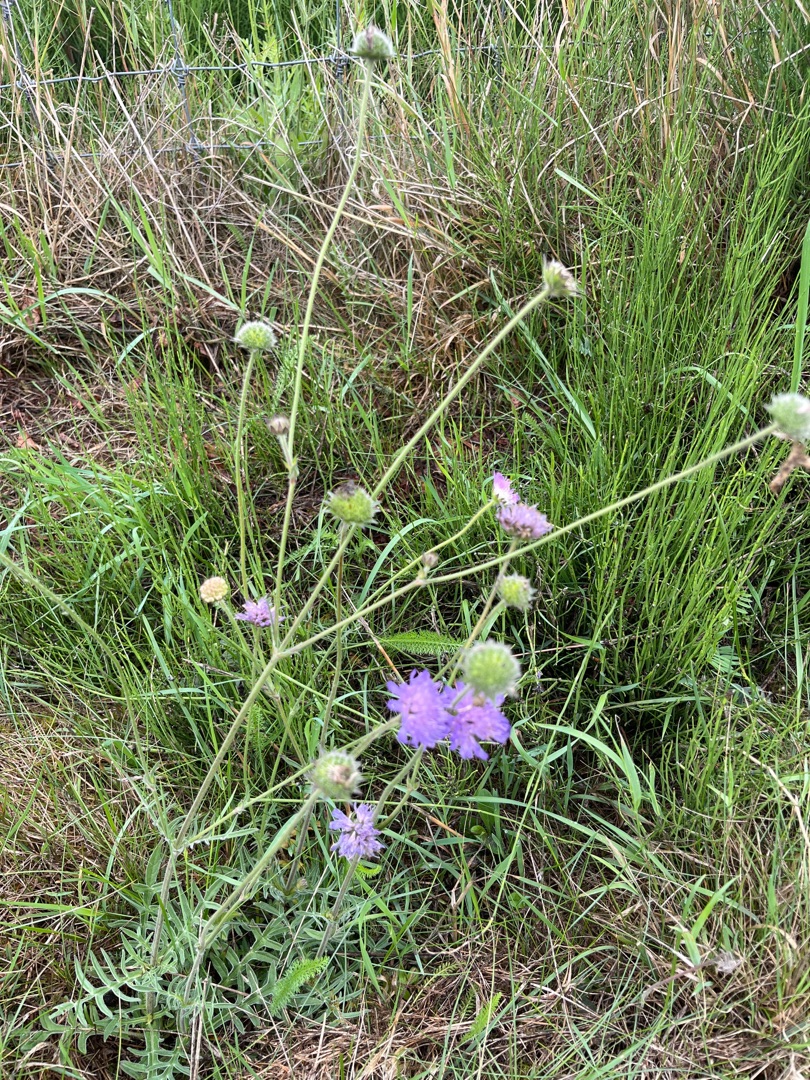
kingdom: Plantae
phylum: Tracheophyta
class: Magnoliopsida
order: Dipsacales
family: Caprifoliaceae
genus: Knautia
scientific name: Knautia arvensis
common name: Blåhat
